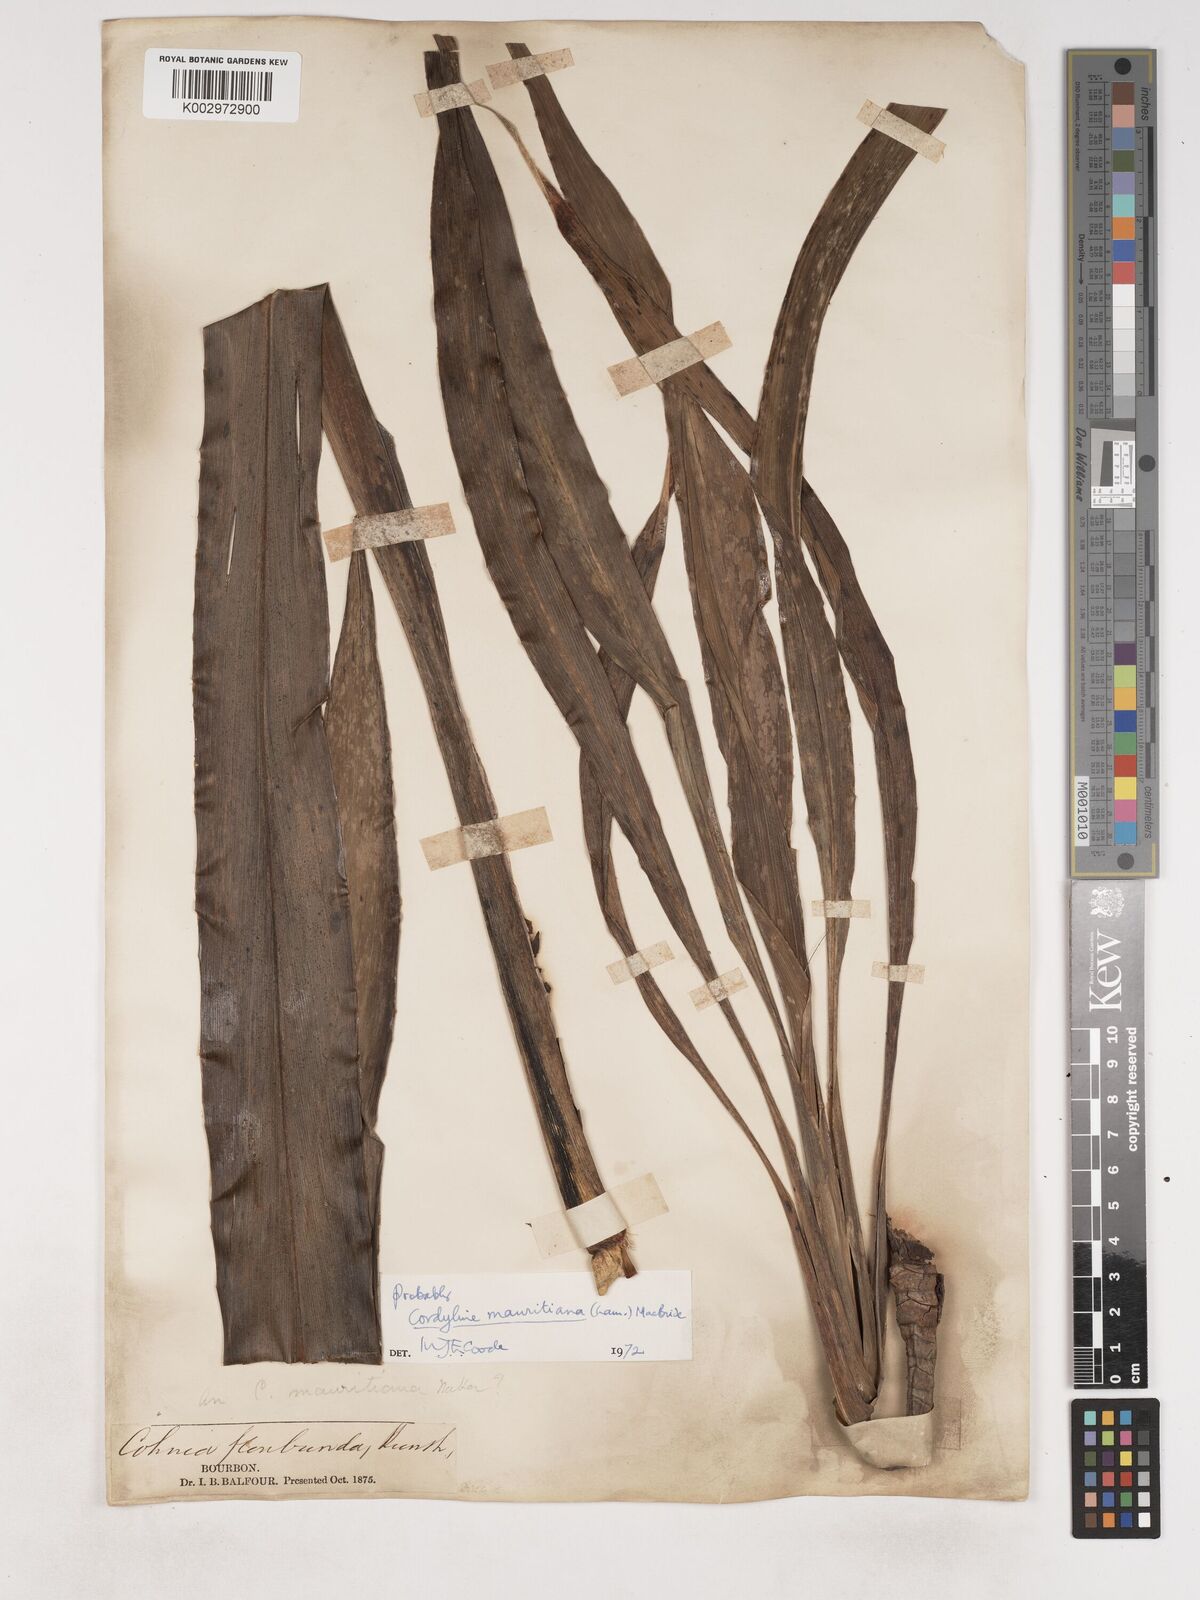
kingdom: Plantae
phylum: Tracheophyta
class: Liliopsida
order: Asparagales
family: Asparagaceae
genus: Cordyline
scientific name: Cordyline mauritiana
